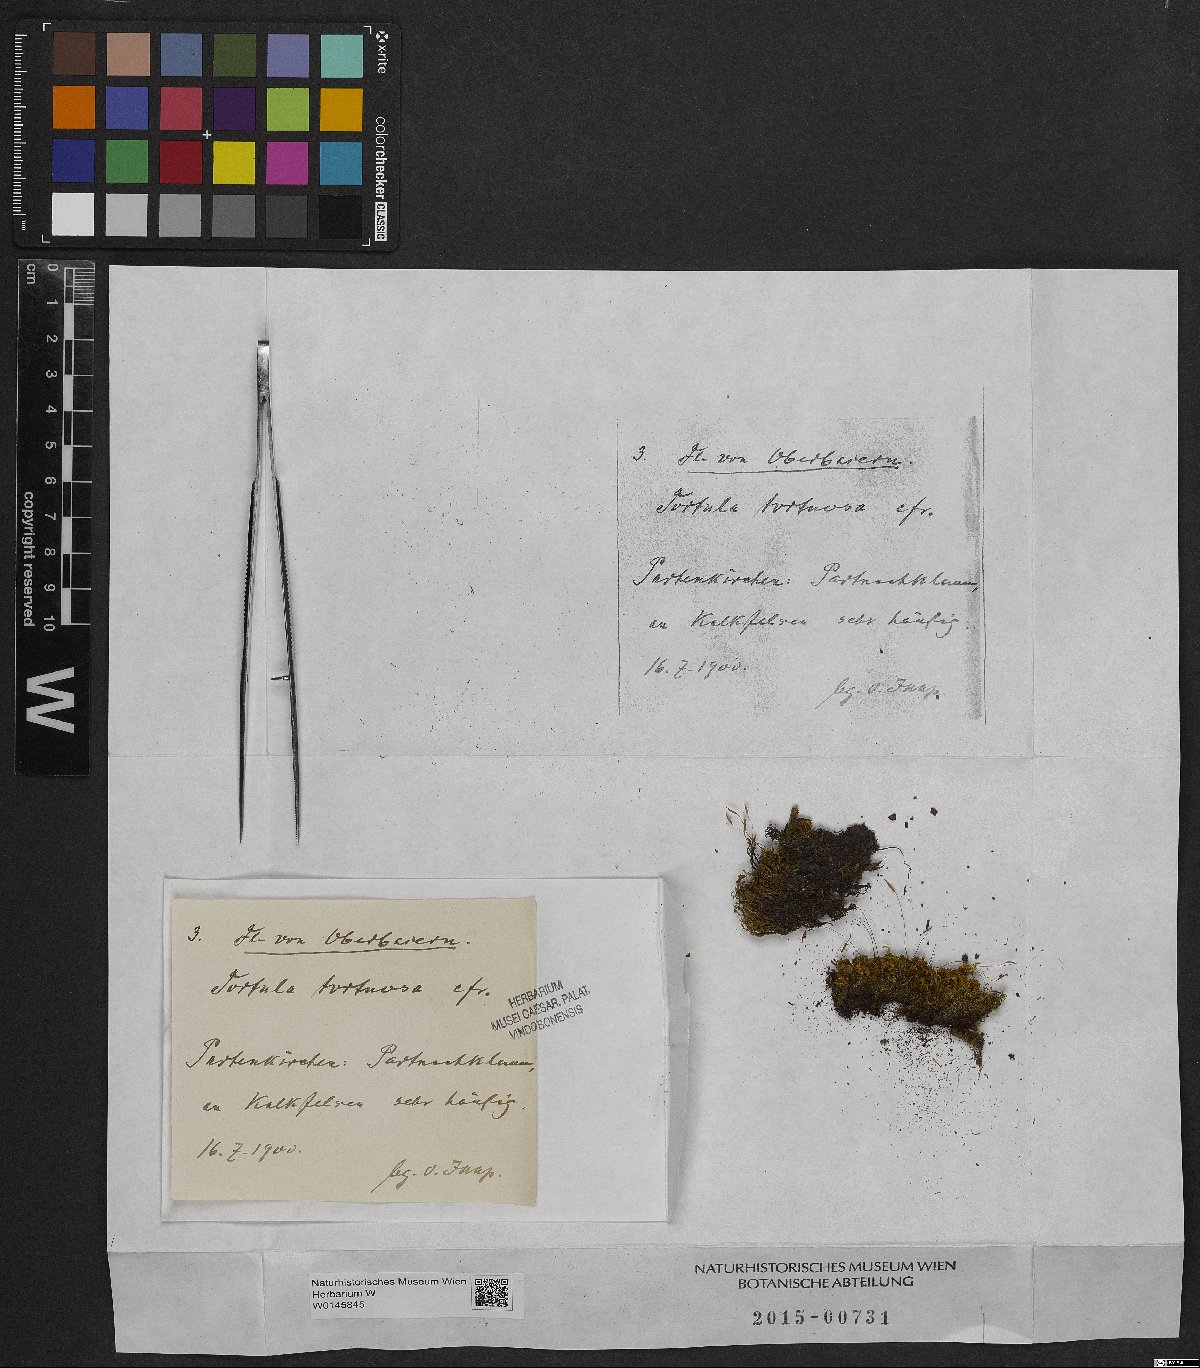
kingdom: Plantae
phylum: Bryophyta
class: Bryopsida
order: Pottiales
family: Pottiaceae
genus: Tortella
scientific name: Tortella tortuosa
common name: Frizzled crisp moss
